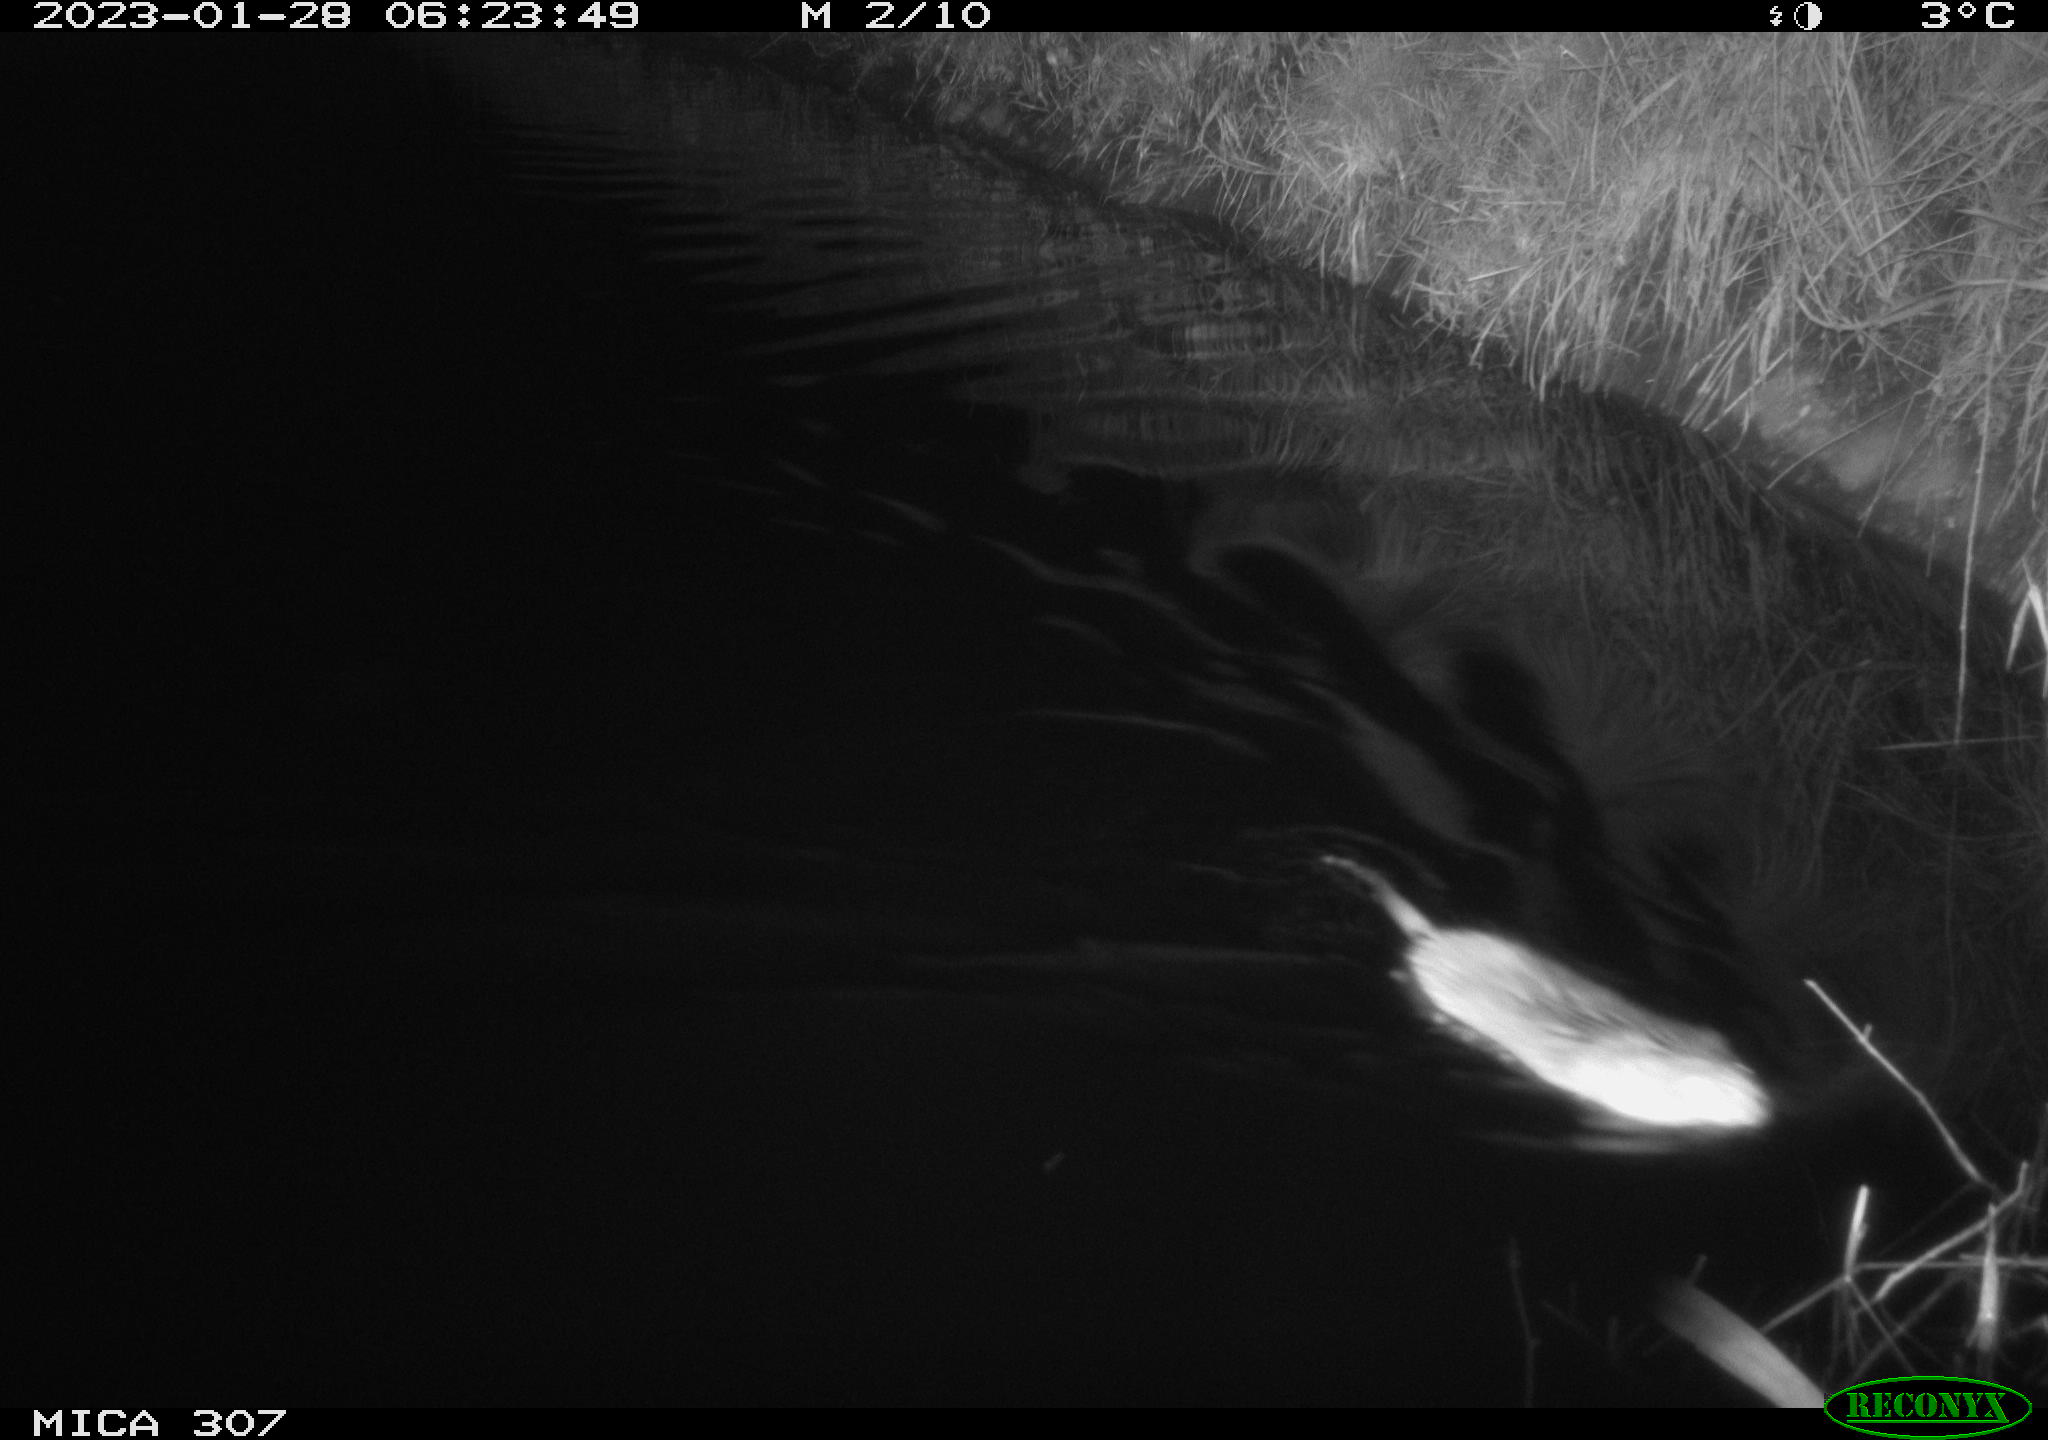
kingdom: Animalia
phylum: Chordata
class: Mammalia
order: Rodentia
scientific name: Rodentia
